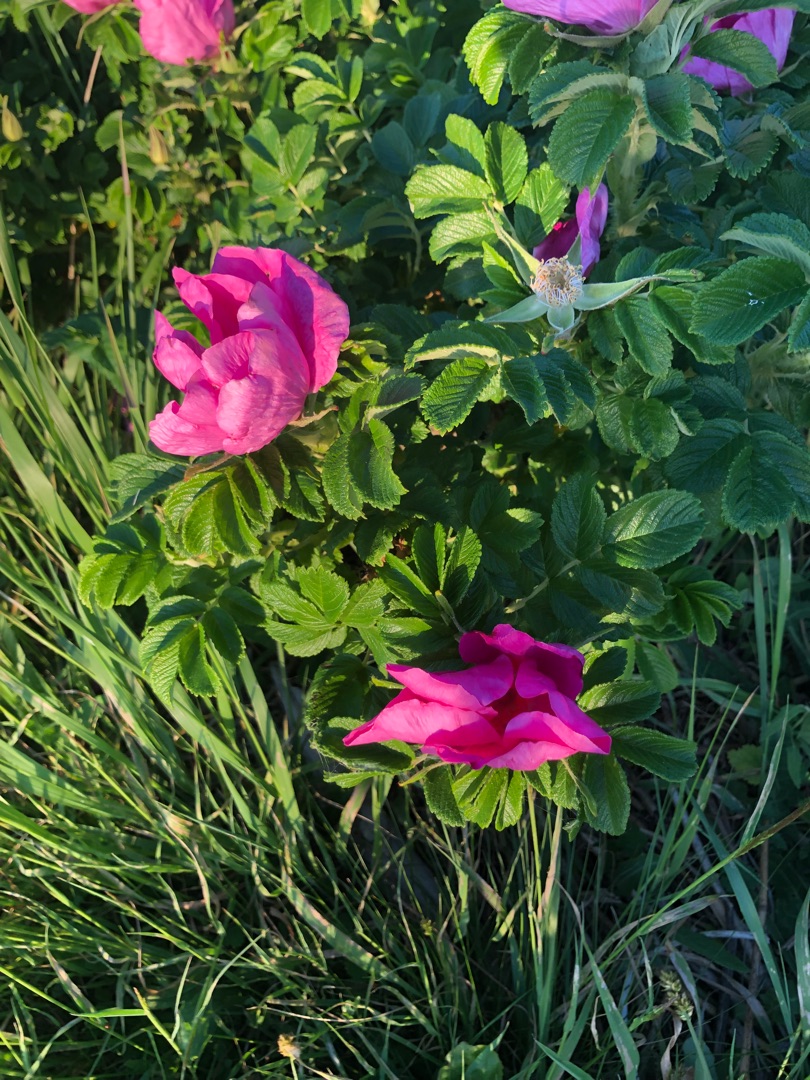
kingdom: Plantae
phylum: Tracheophyta
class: Magnoliopsida
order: Rosales
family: Rosaceae
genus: Rosa
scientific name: Rosa rugosa
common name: Rynket rose
